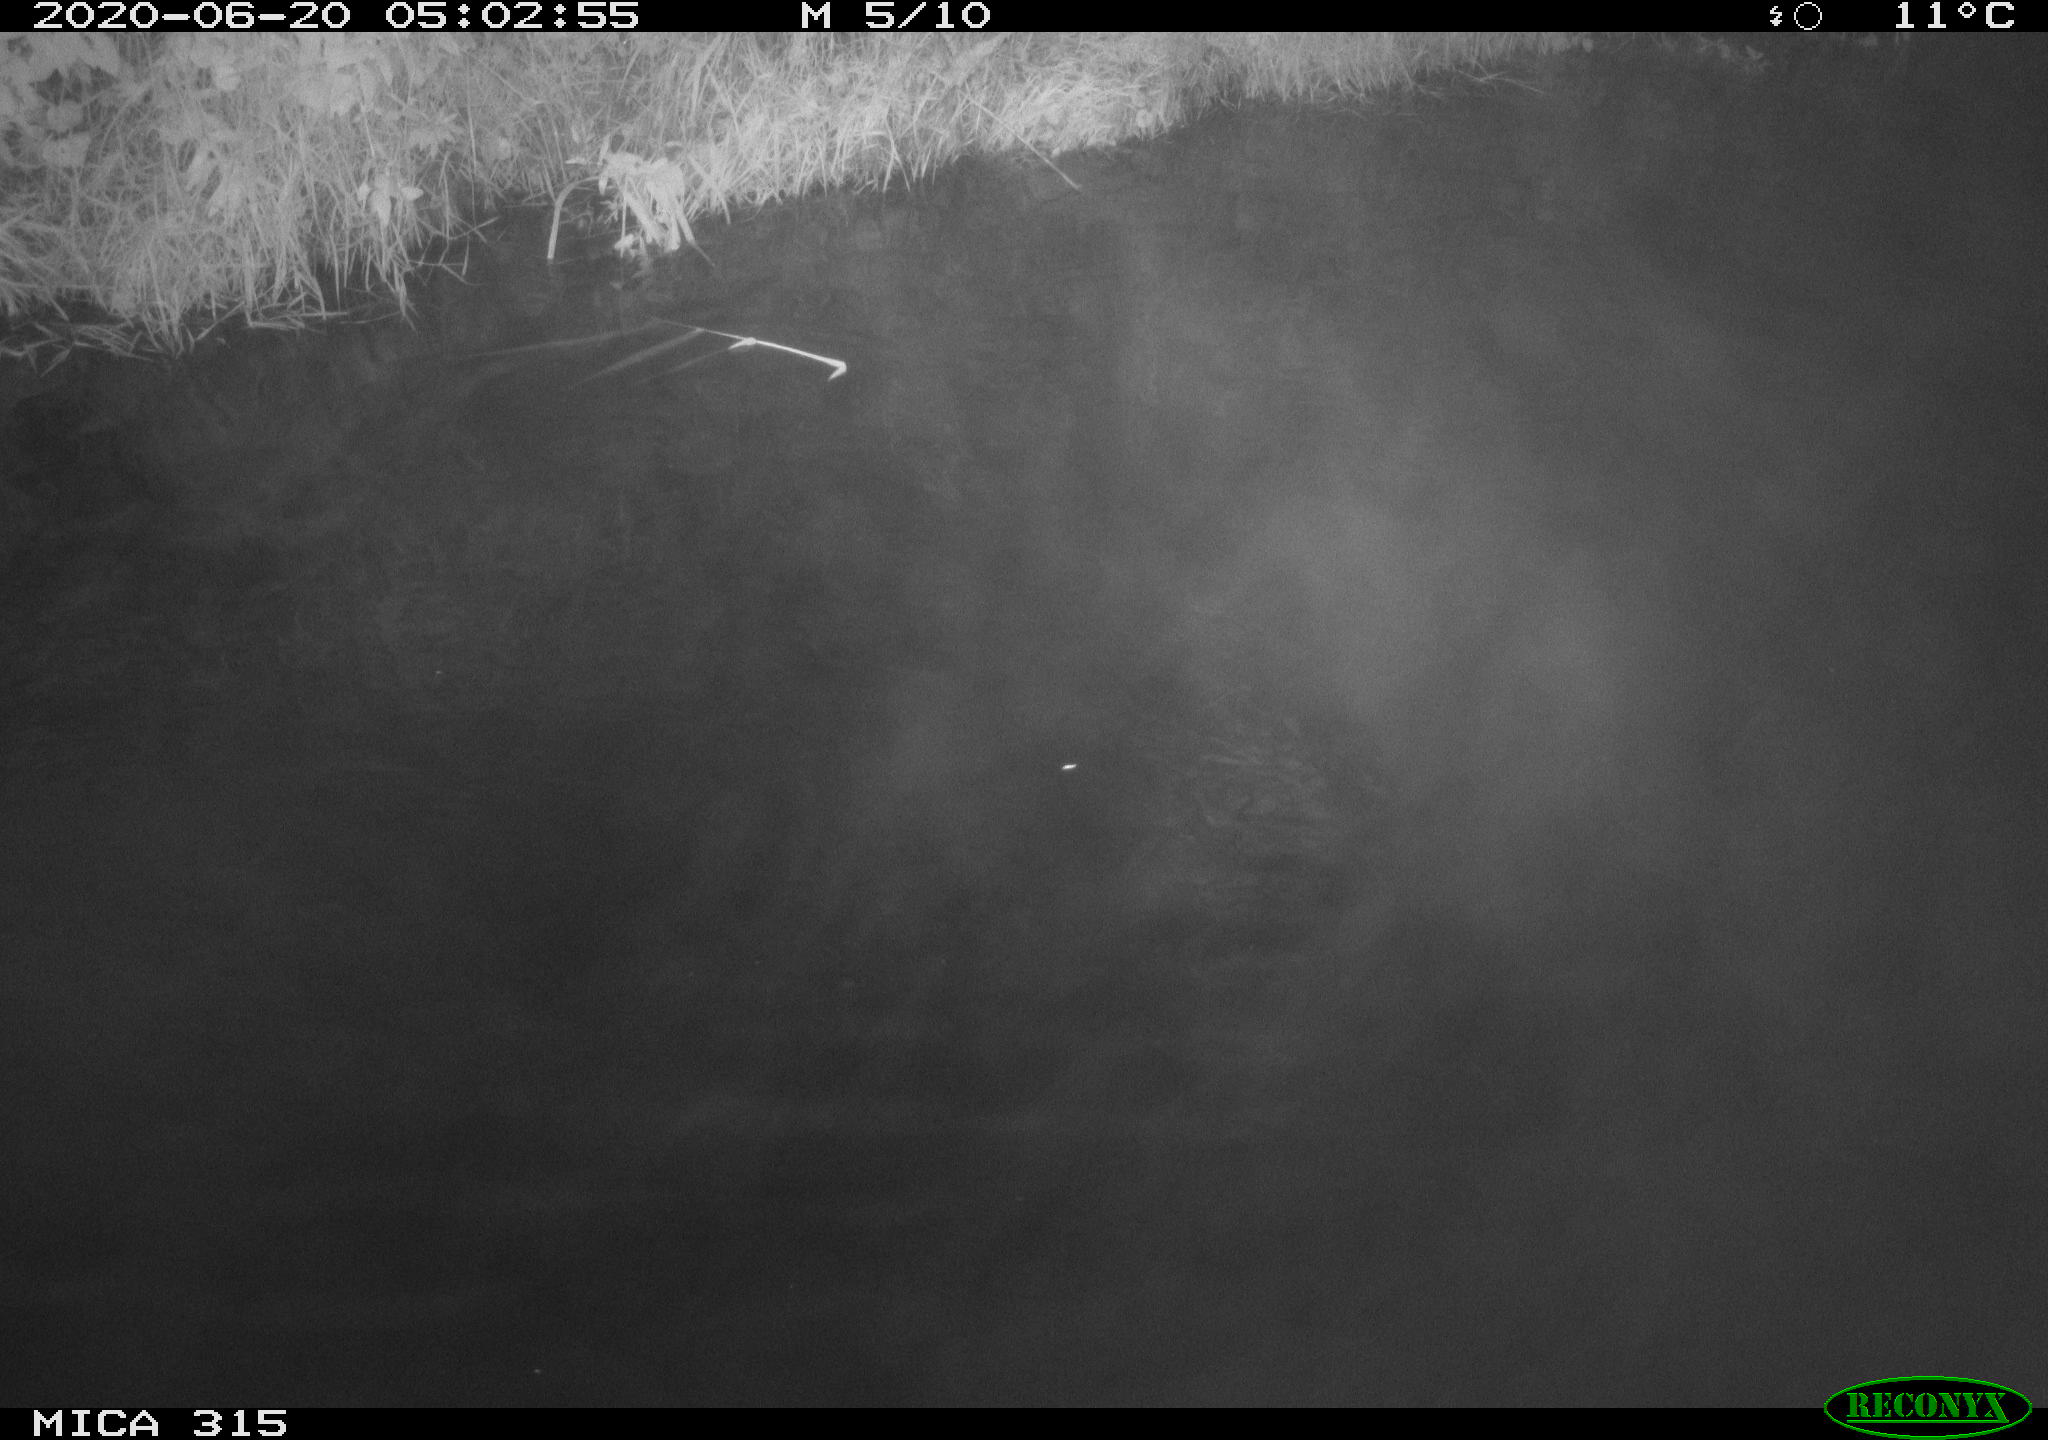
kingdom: Animalia
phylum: Chordata
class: Aves
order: Anseriformes
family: Anatidae
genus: Anas
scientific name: Anas platyrhynchos
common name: Mallard
